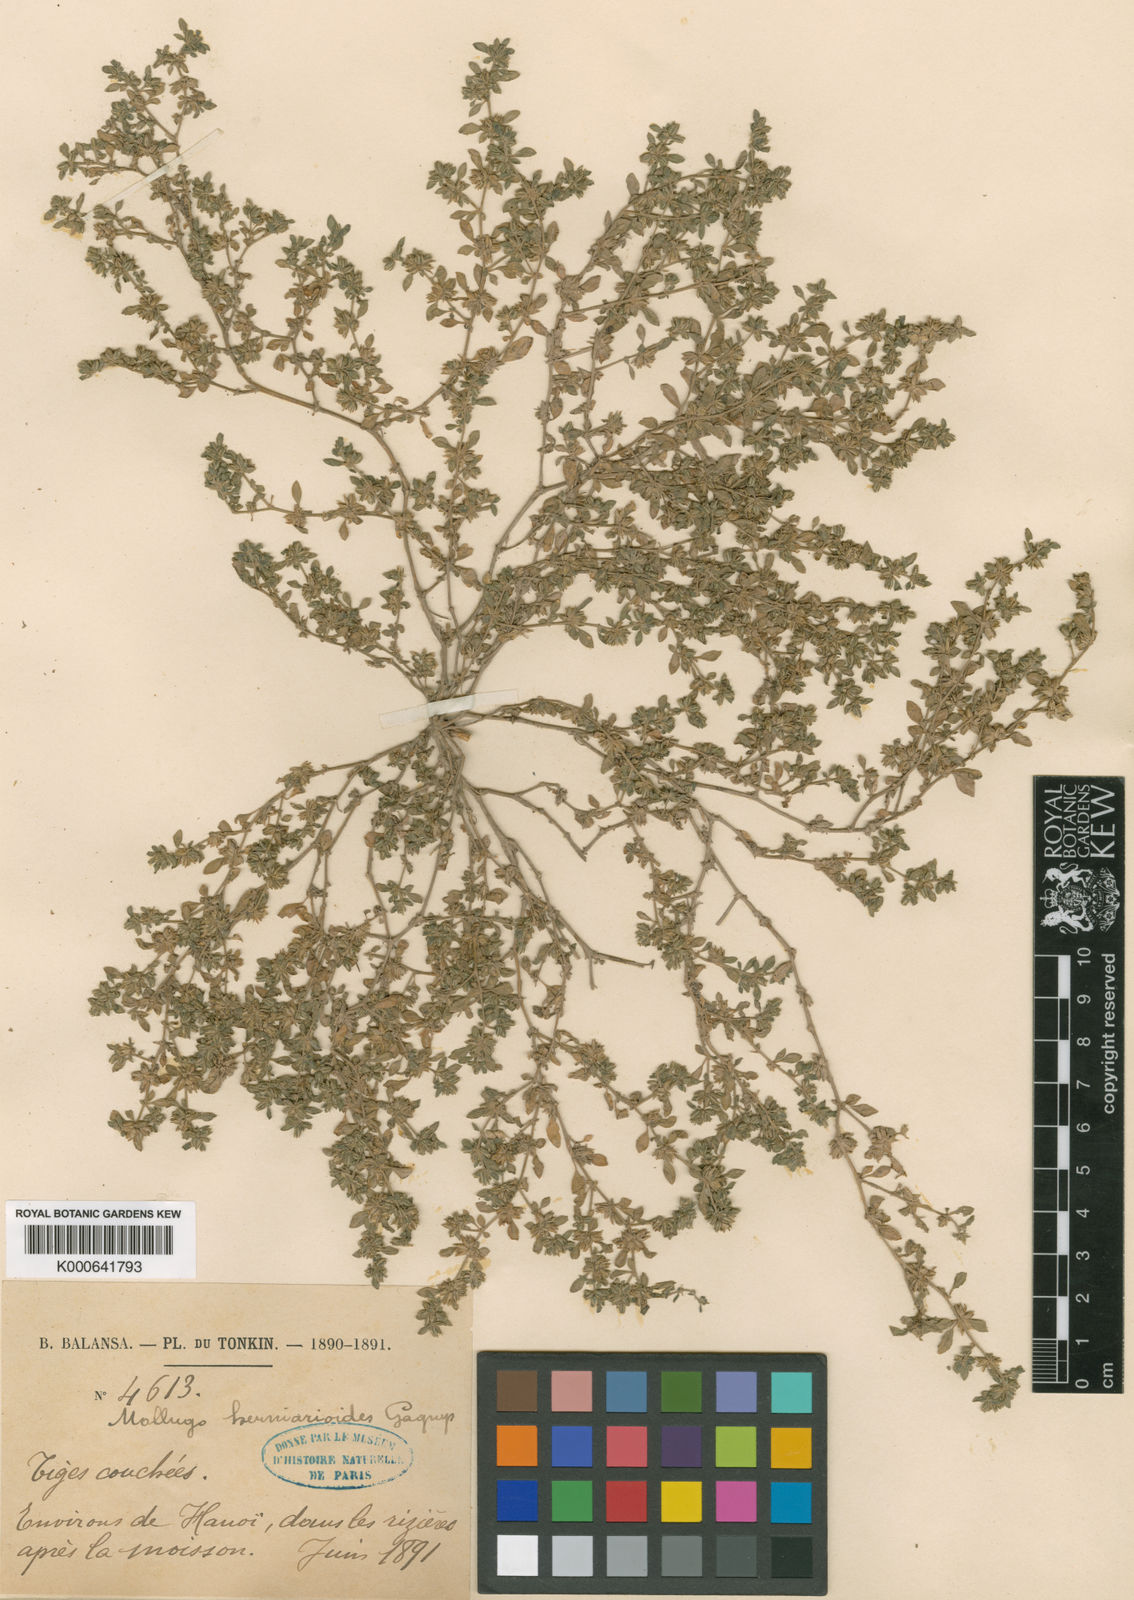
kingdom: Plantae
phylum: Tracheophyta
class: Magnoliopsida
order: Caryophyllales
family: Molluginaceae
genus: Glinus
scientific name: Glinus oppositifolius
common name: Slender carpetweed
